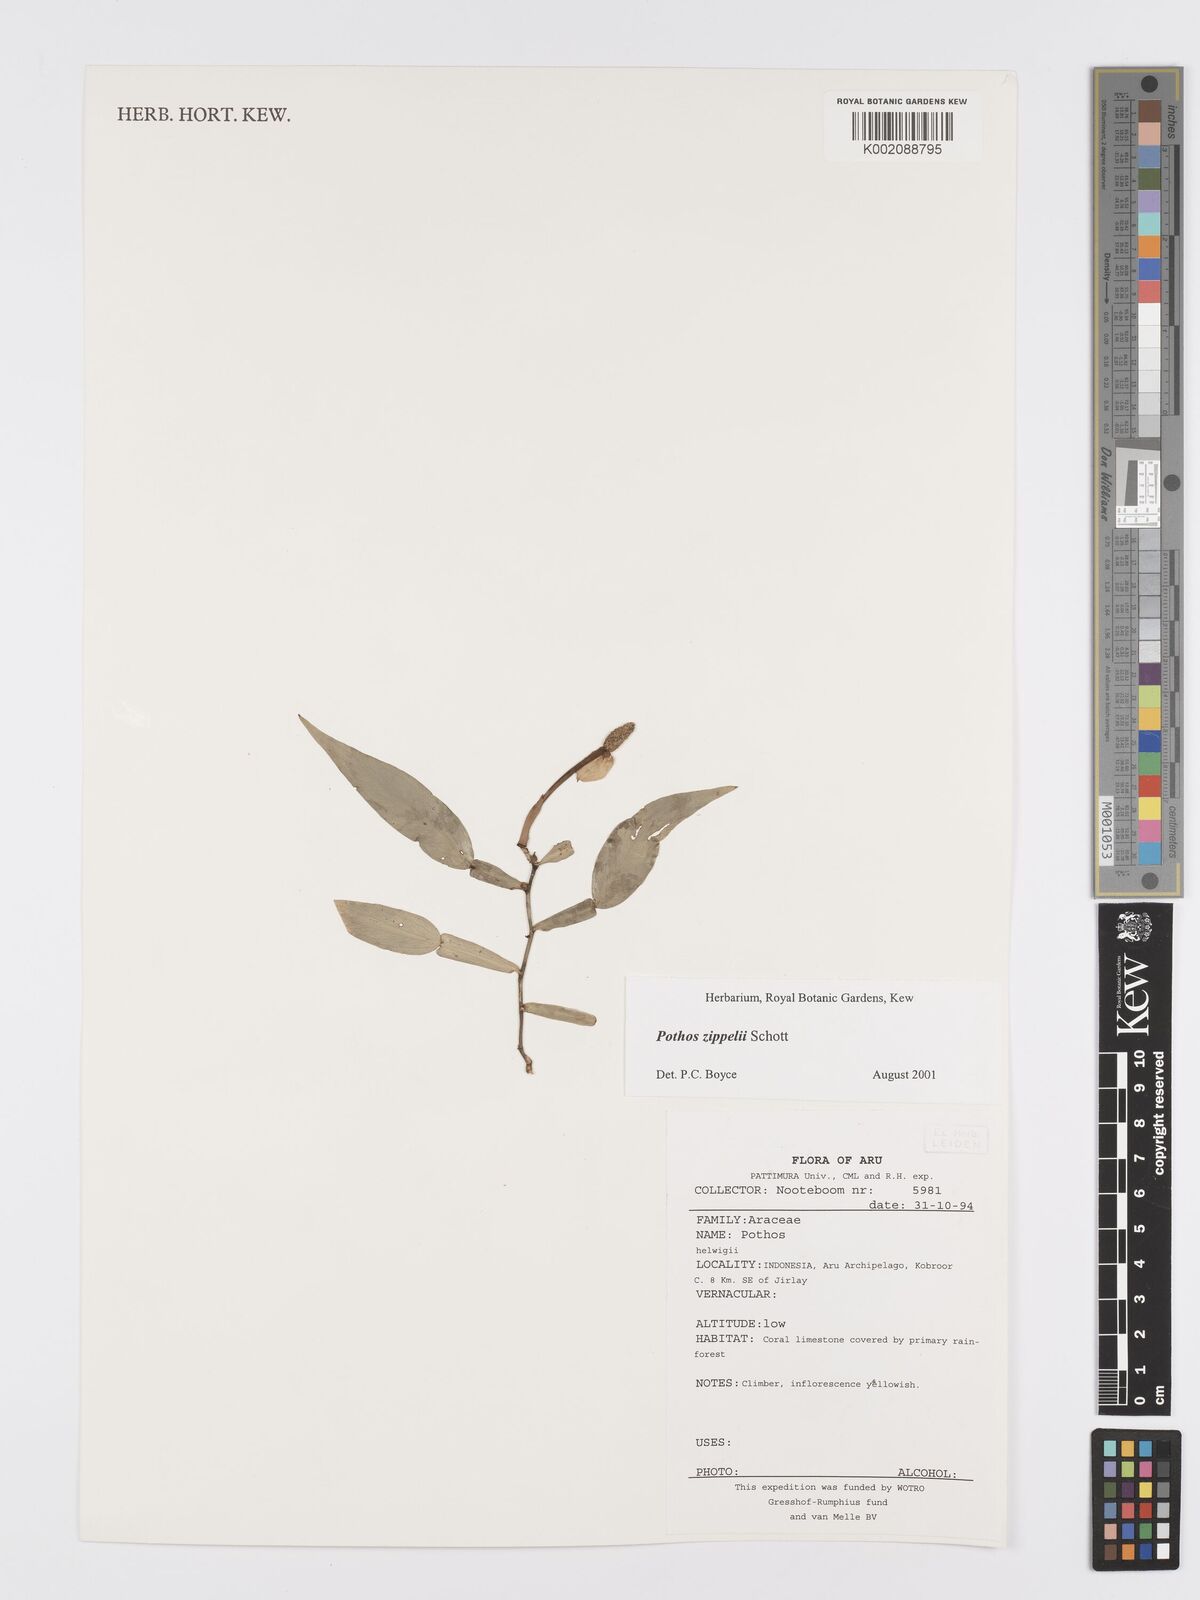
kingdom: Plantae
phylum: Tracheophyta
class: Liliopsida
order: Alismatales
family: Araceae
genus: Pothos
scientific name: Pothos zippelii
